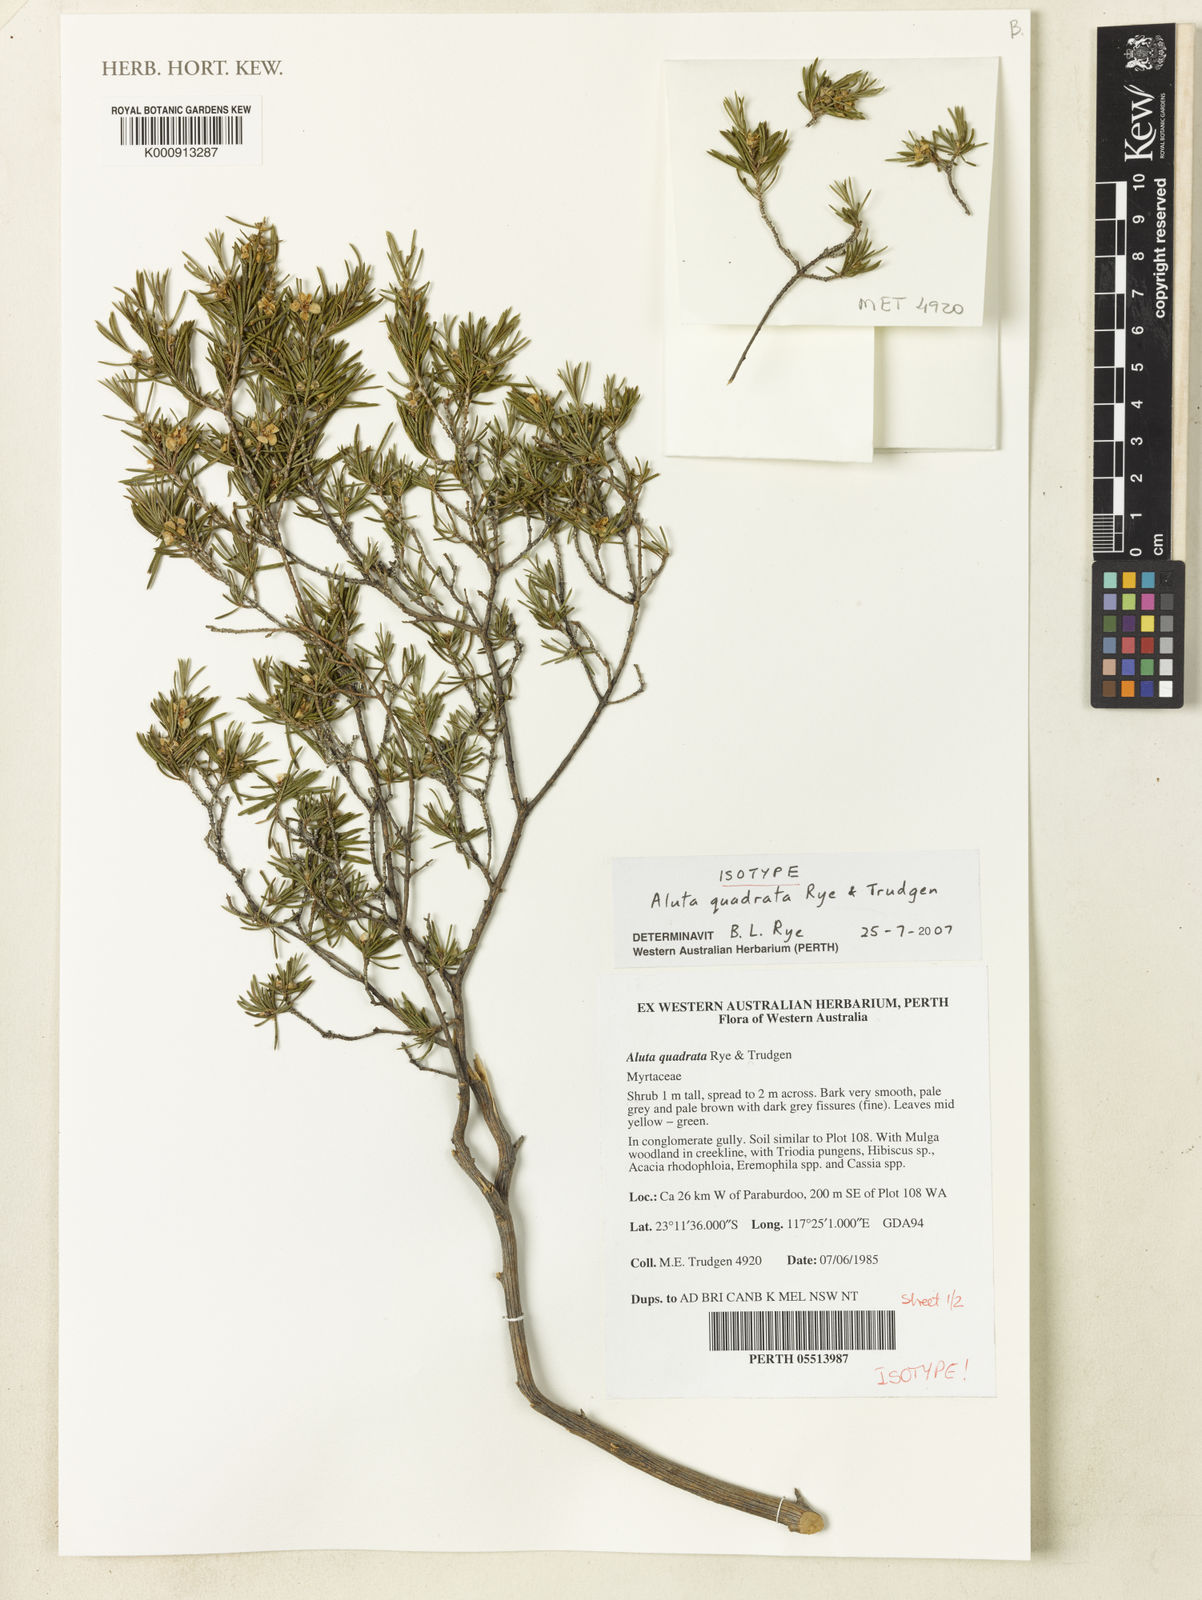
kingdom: Plantae
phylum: Tracheophyta
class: Magnoliopsida
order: Myrtales
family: Myrtaceae
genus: Aluta
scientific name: Aluta quadrata
